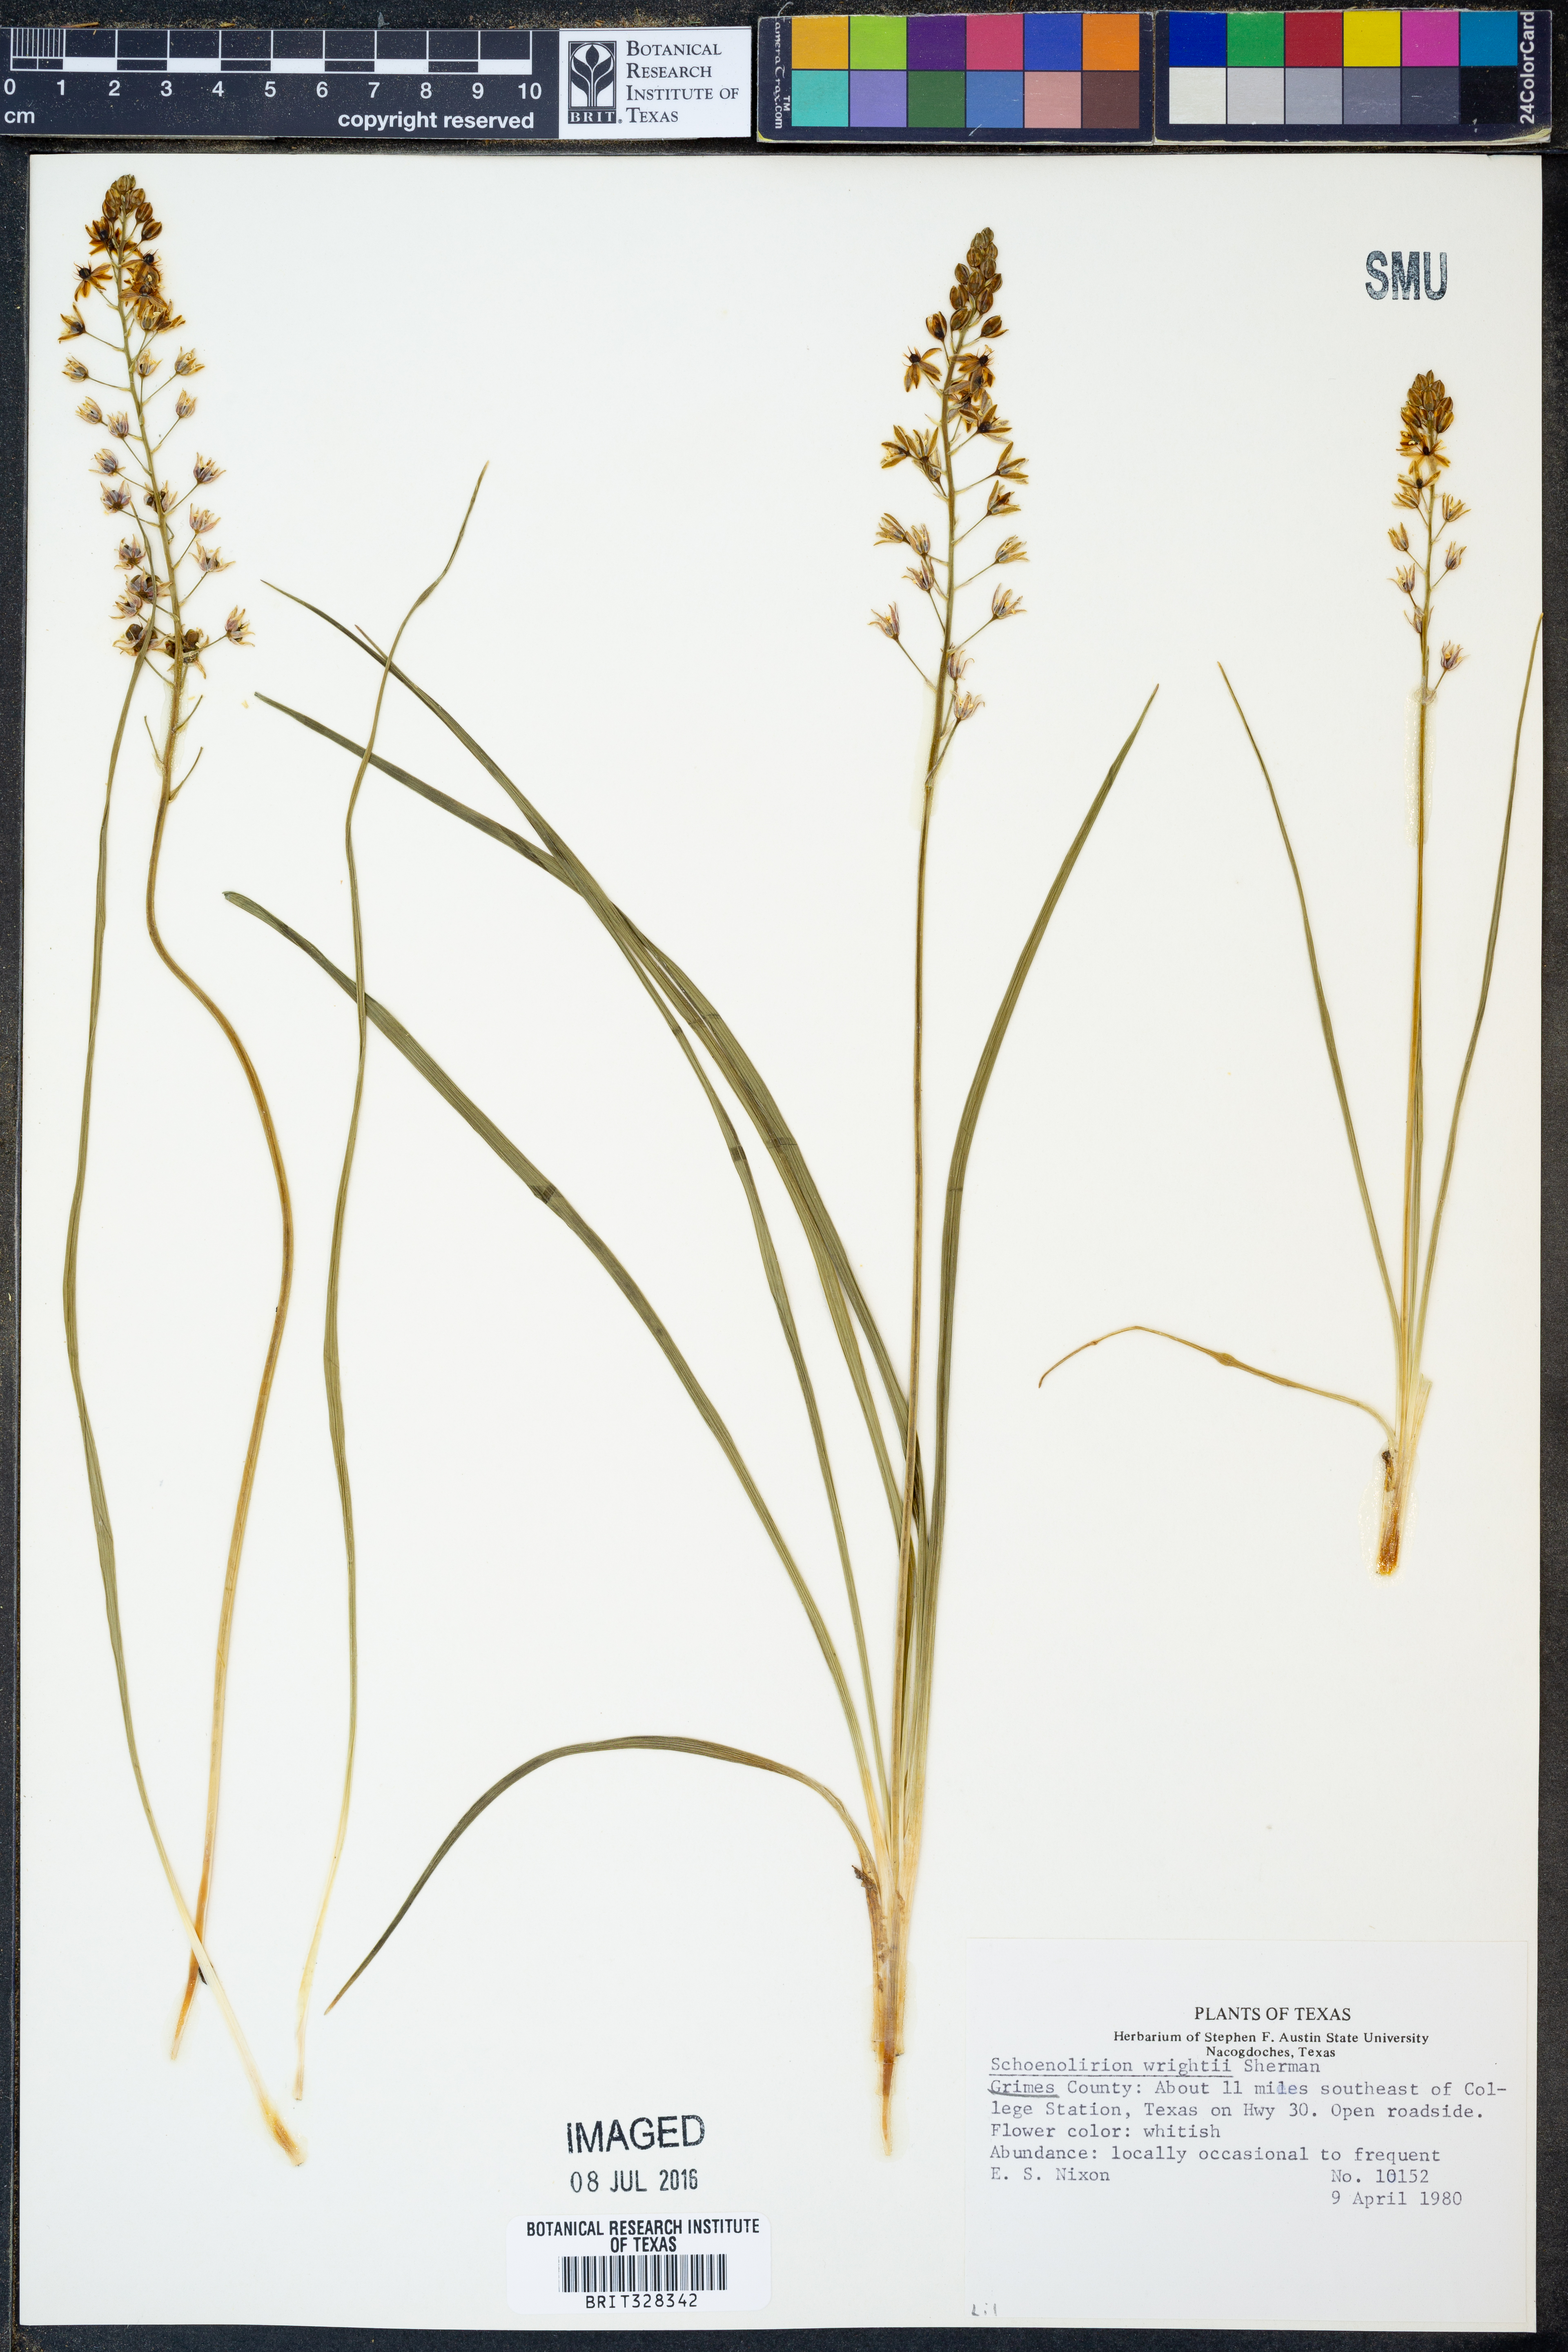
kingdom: Plantae
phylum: Tracheophyta
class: Liliopsida
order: Asparagales
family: Asparagaceae
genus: Schoenolirion
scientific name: Schoenolirion wrightii
